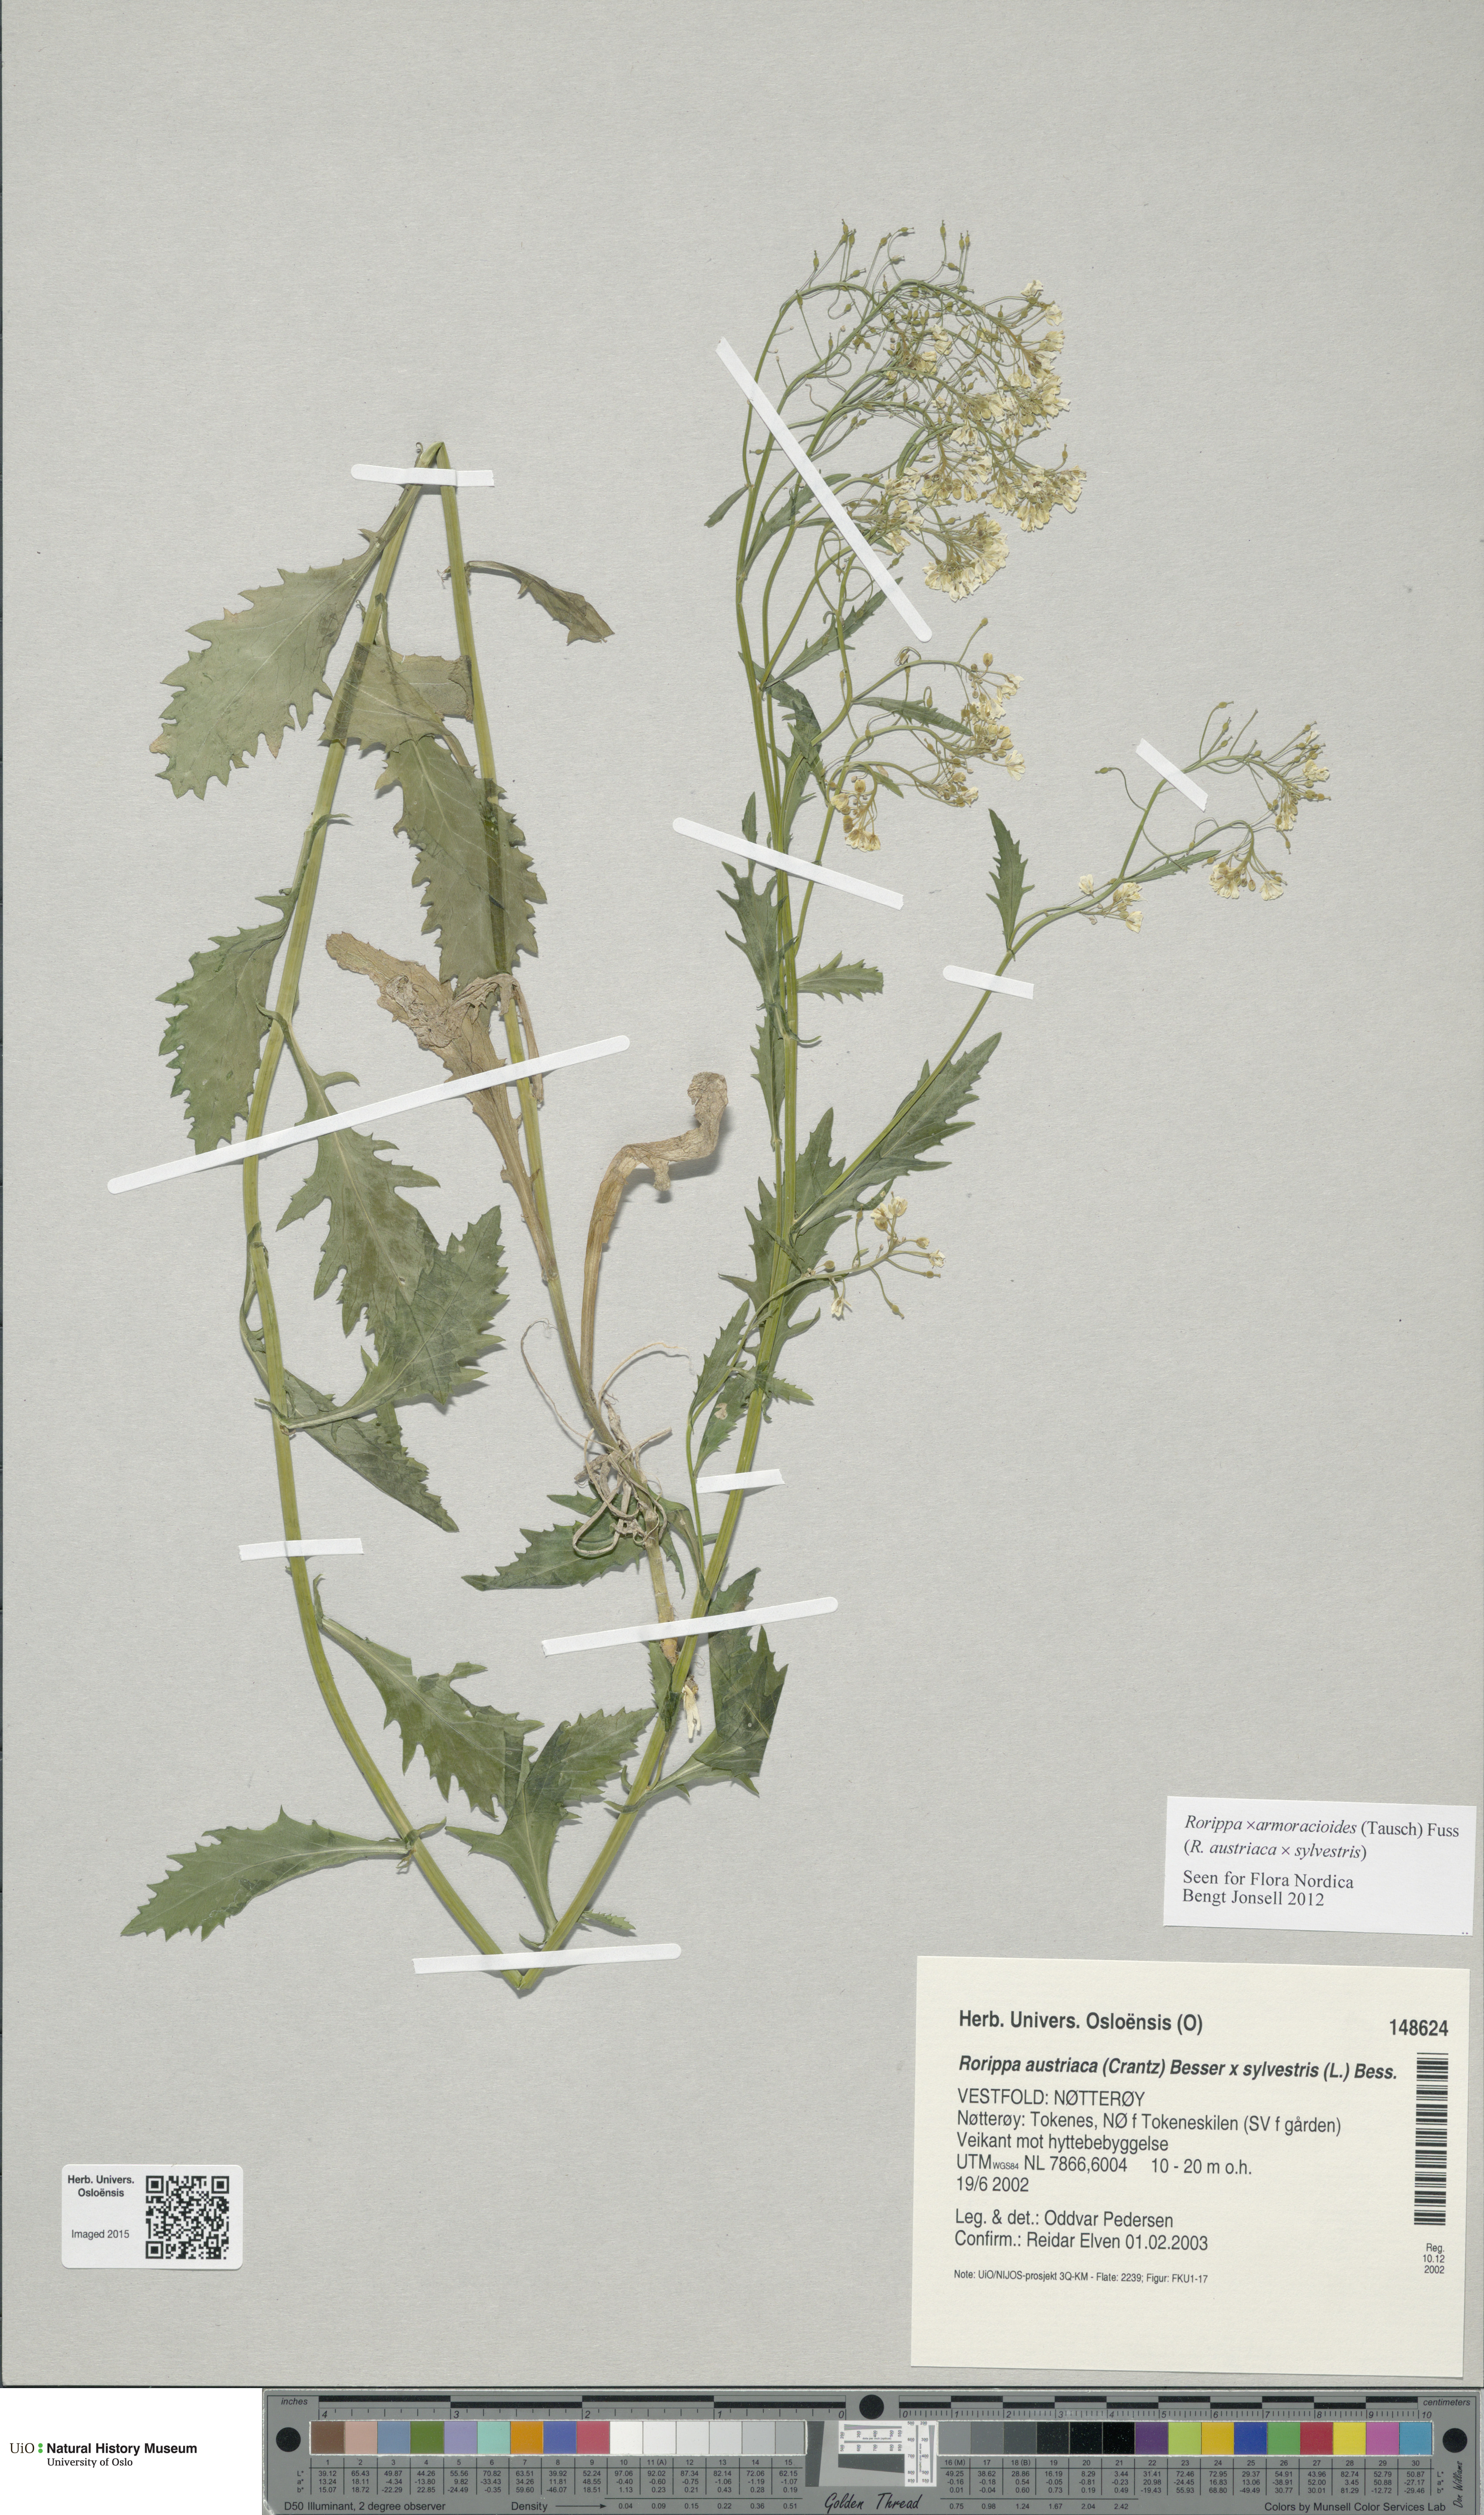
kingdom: Plantae
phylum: Tracheophyta
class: Magnoliopsida
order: Brassicales
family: Brassicaceae
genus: Rorippa
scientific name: Rorippa
